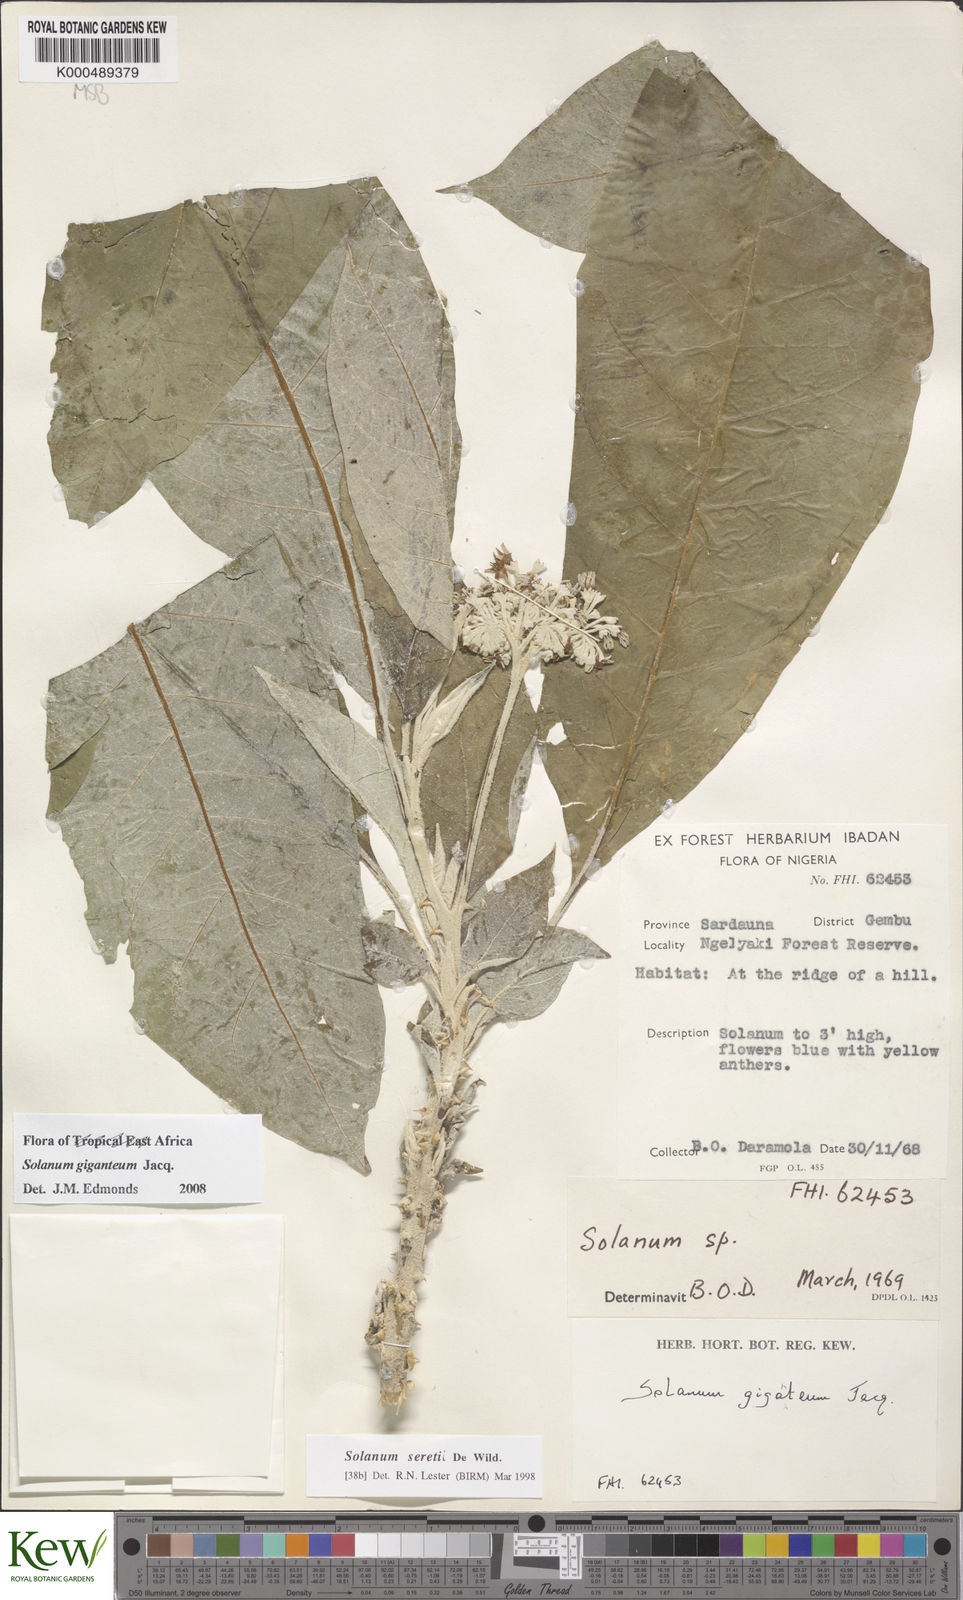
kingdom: Plantae
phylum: Tracheophyta
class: Magnoliopsida
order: Solanales
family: Solanaceae
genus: Solanum
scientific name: Solanum giganteum
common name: Healing-leaf-tree
